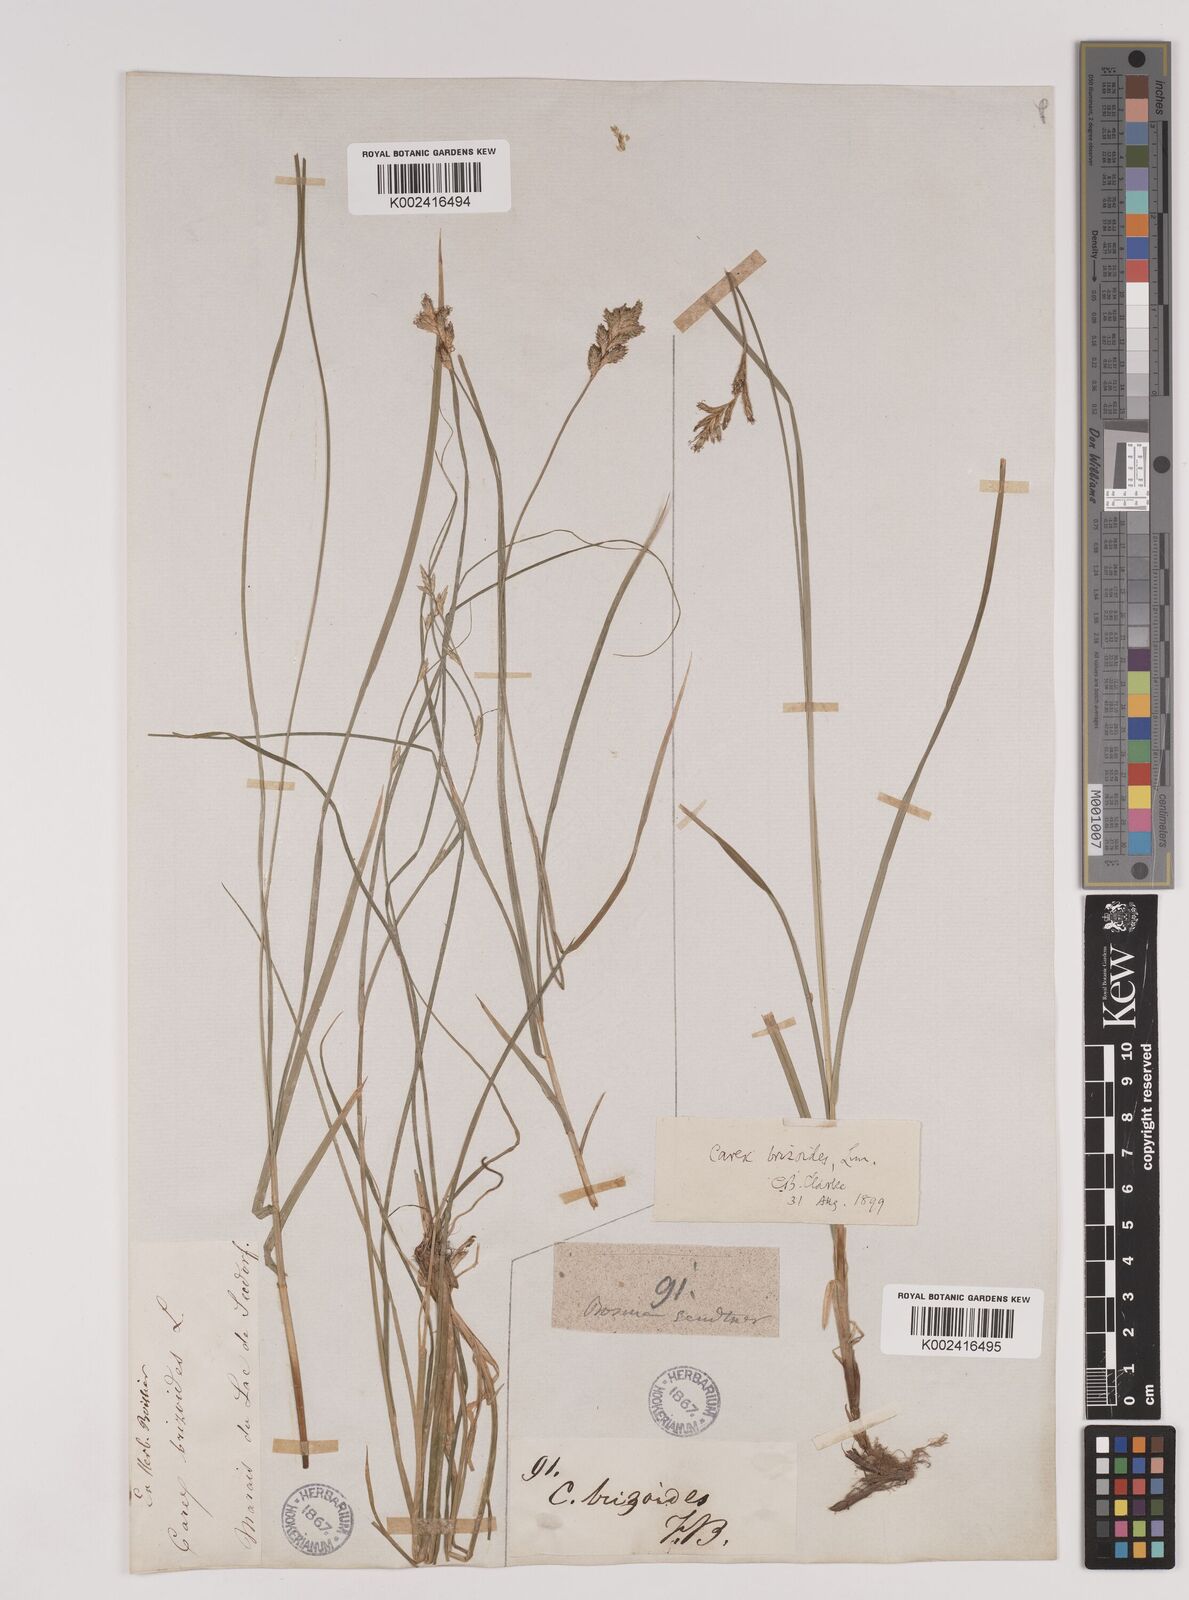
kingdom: Plantae
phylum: Tracheophyta
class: Liliopsida
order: Poales
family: Cyperaceae
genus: Carex
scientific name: Carex brizoides
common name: Quaking-grass sedge
